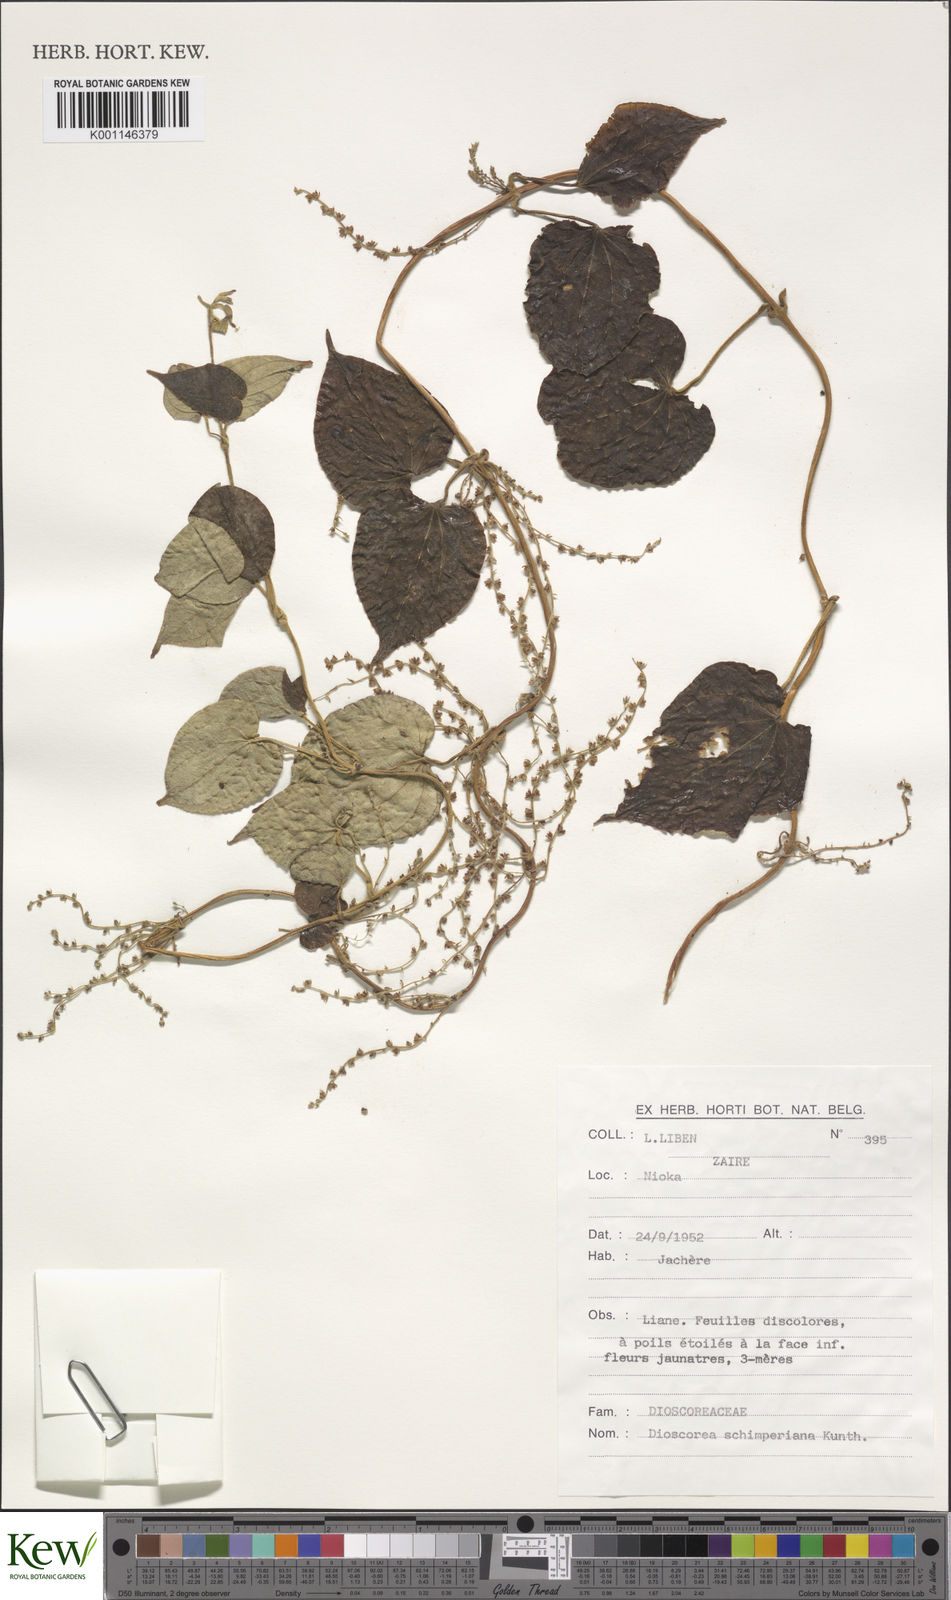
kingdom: Plantae
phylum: Tracheophyta
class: Liliopsida
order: Dioscoreales
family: Dioscoreaceae
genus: Dioscorea
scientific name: Dioscorea schimperiana
